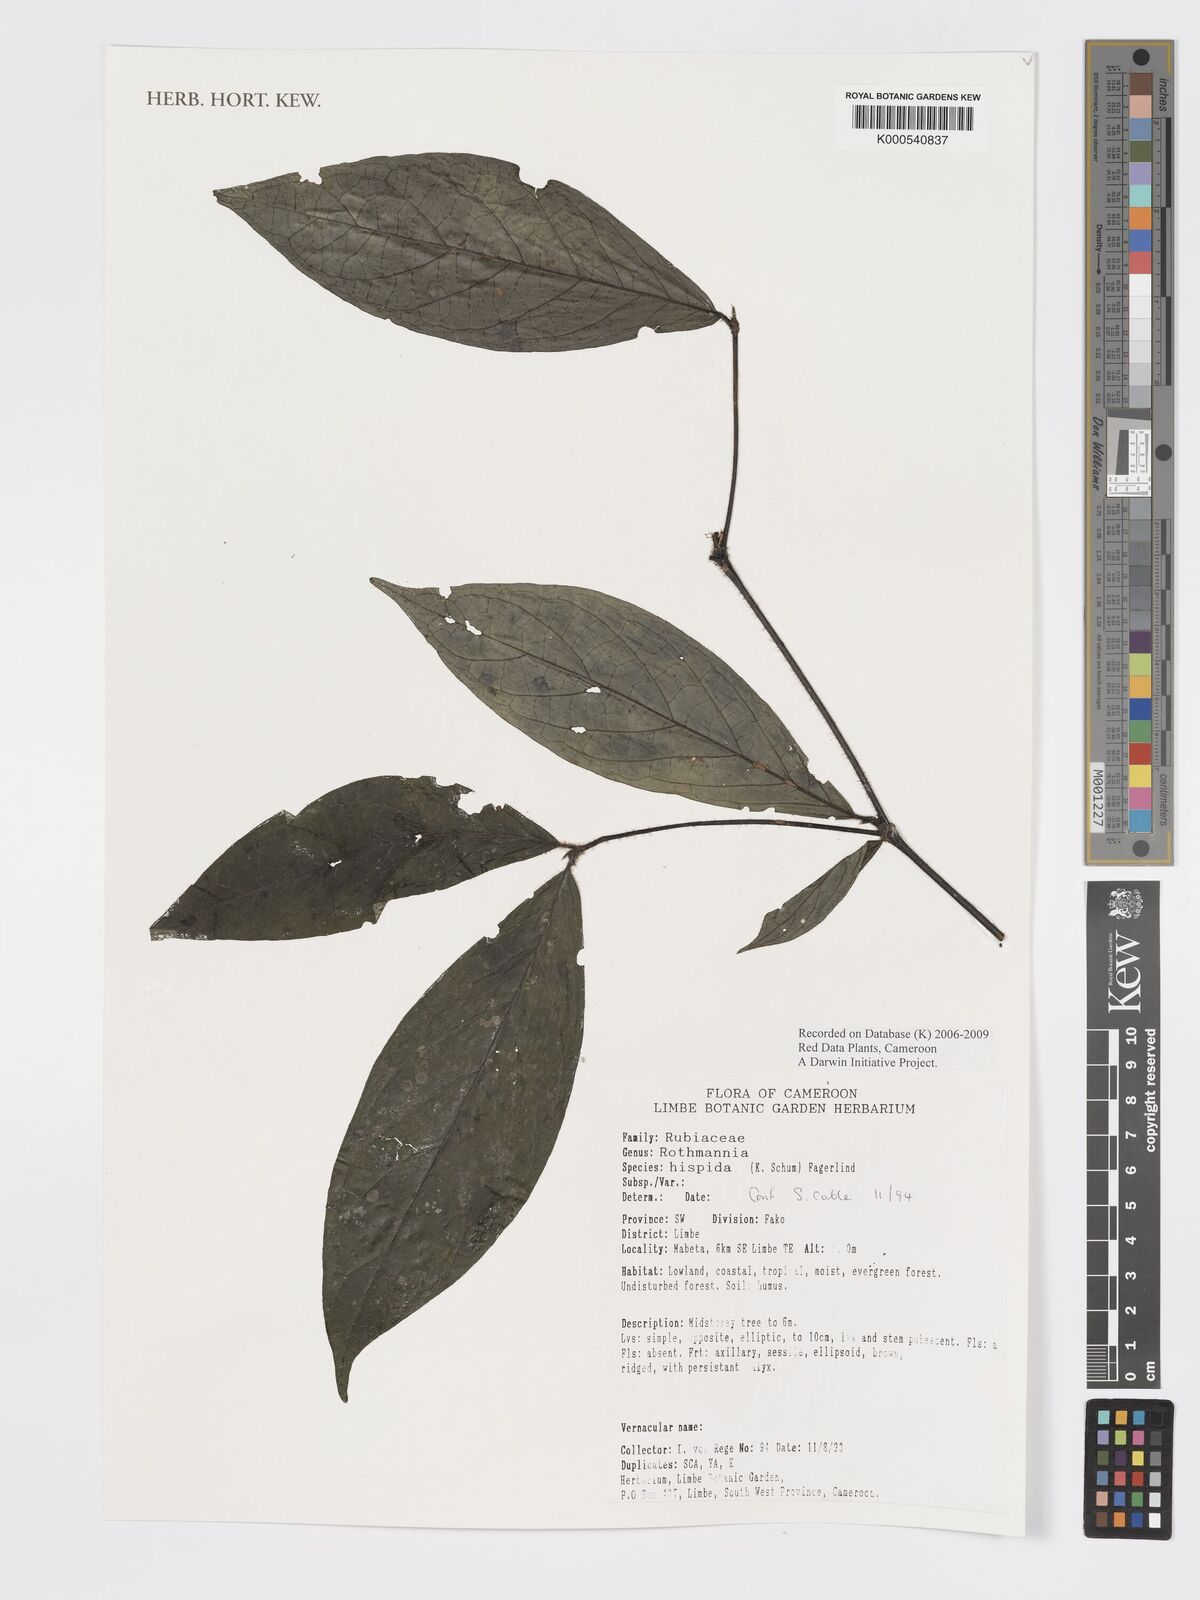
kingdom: Plantae
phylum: Tracheophyta
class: Magnoliopsida
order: Gentianales
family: Rubiaceae
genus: Rothmannia
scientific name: Rothmannia hispida
